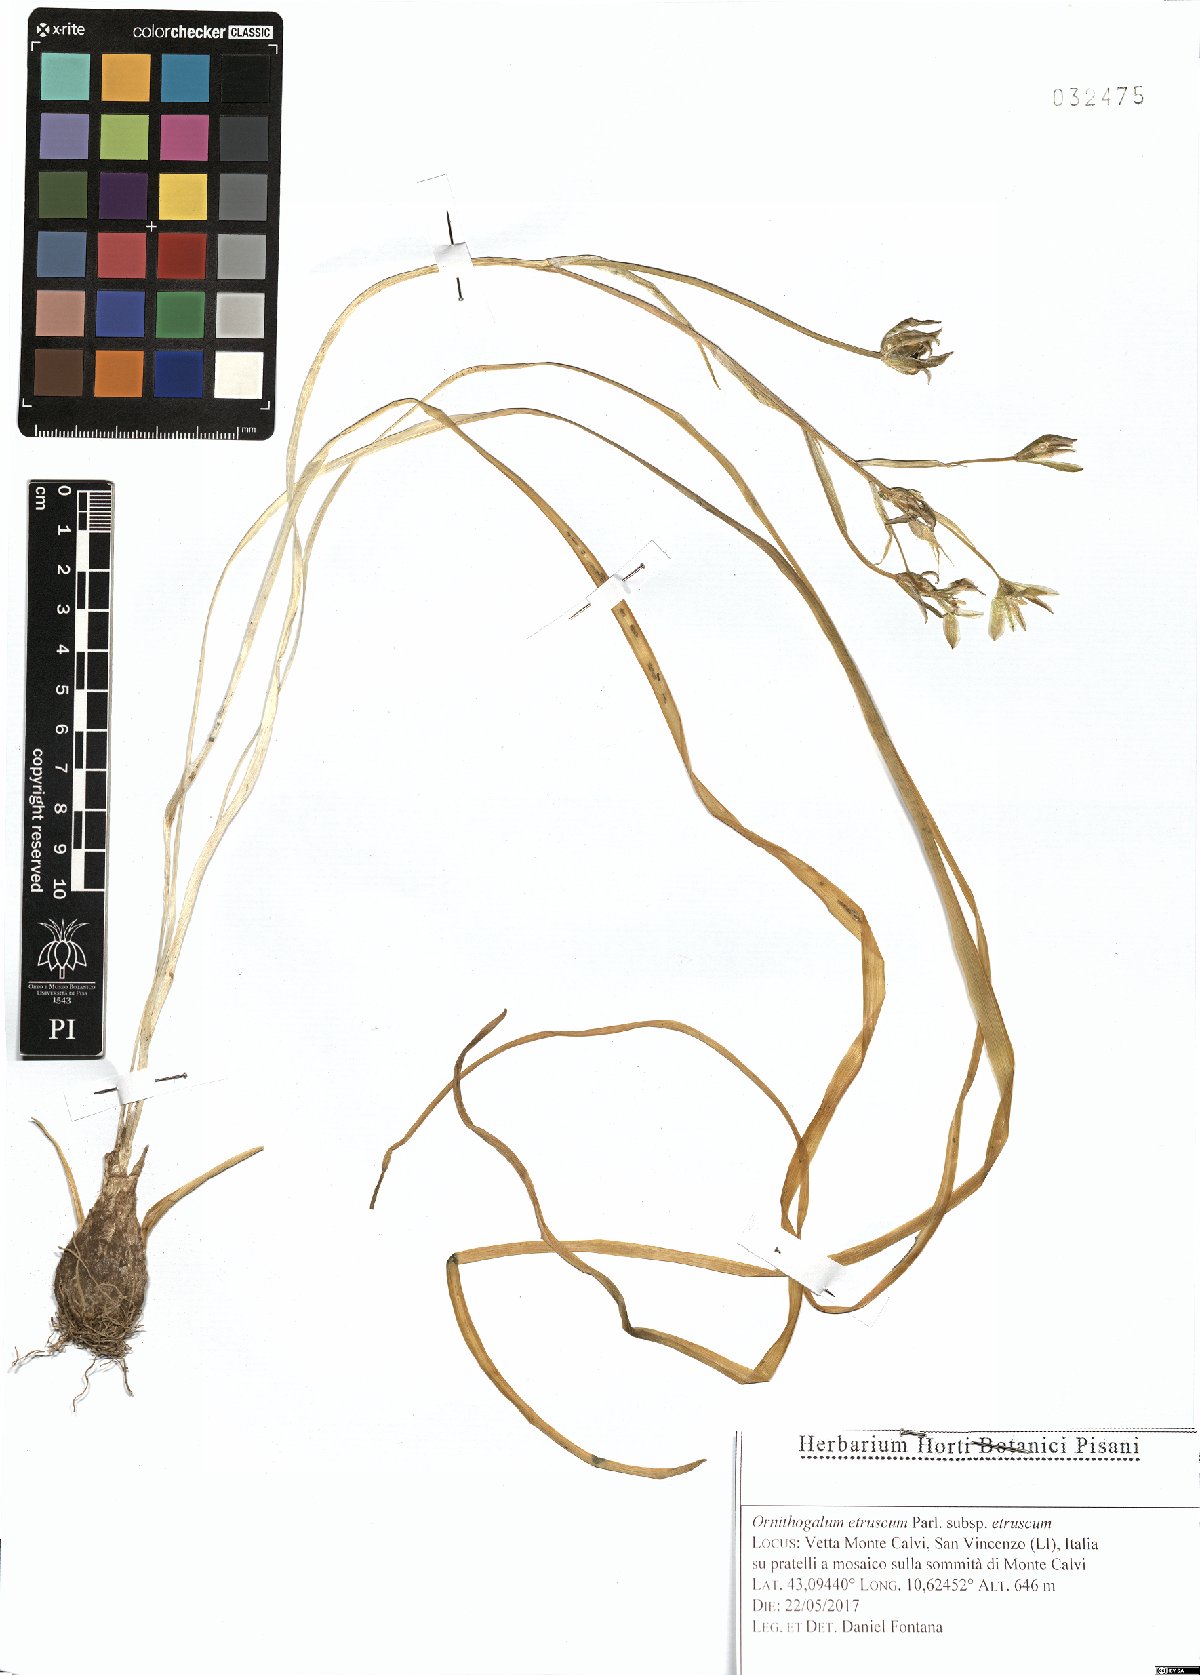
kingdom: Plantae
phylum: Tracheophyta
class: Liliopsida
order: Asparagales
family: Asparagaceae
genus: Ornithogalum
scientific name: Ornithogalum orthophyllum
